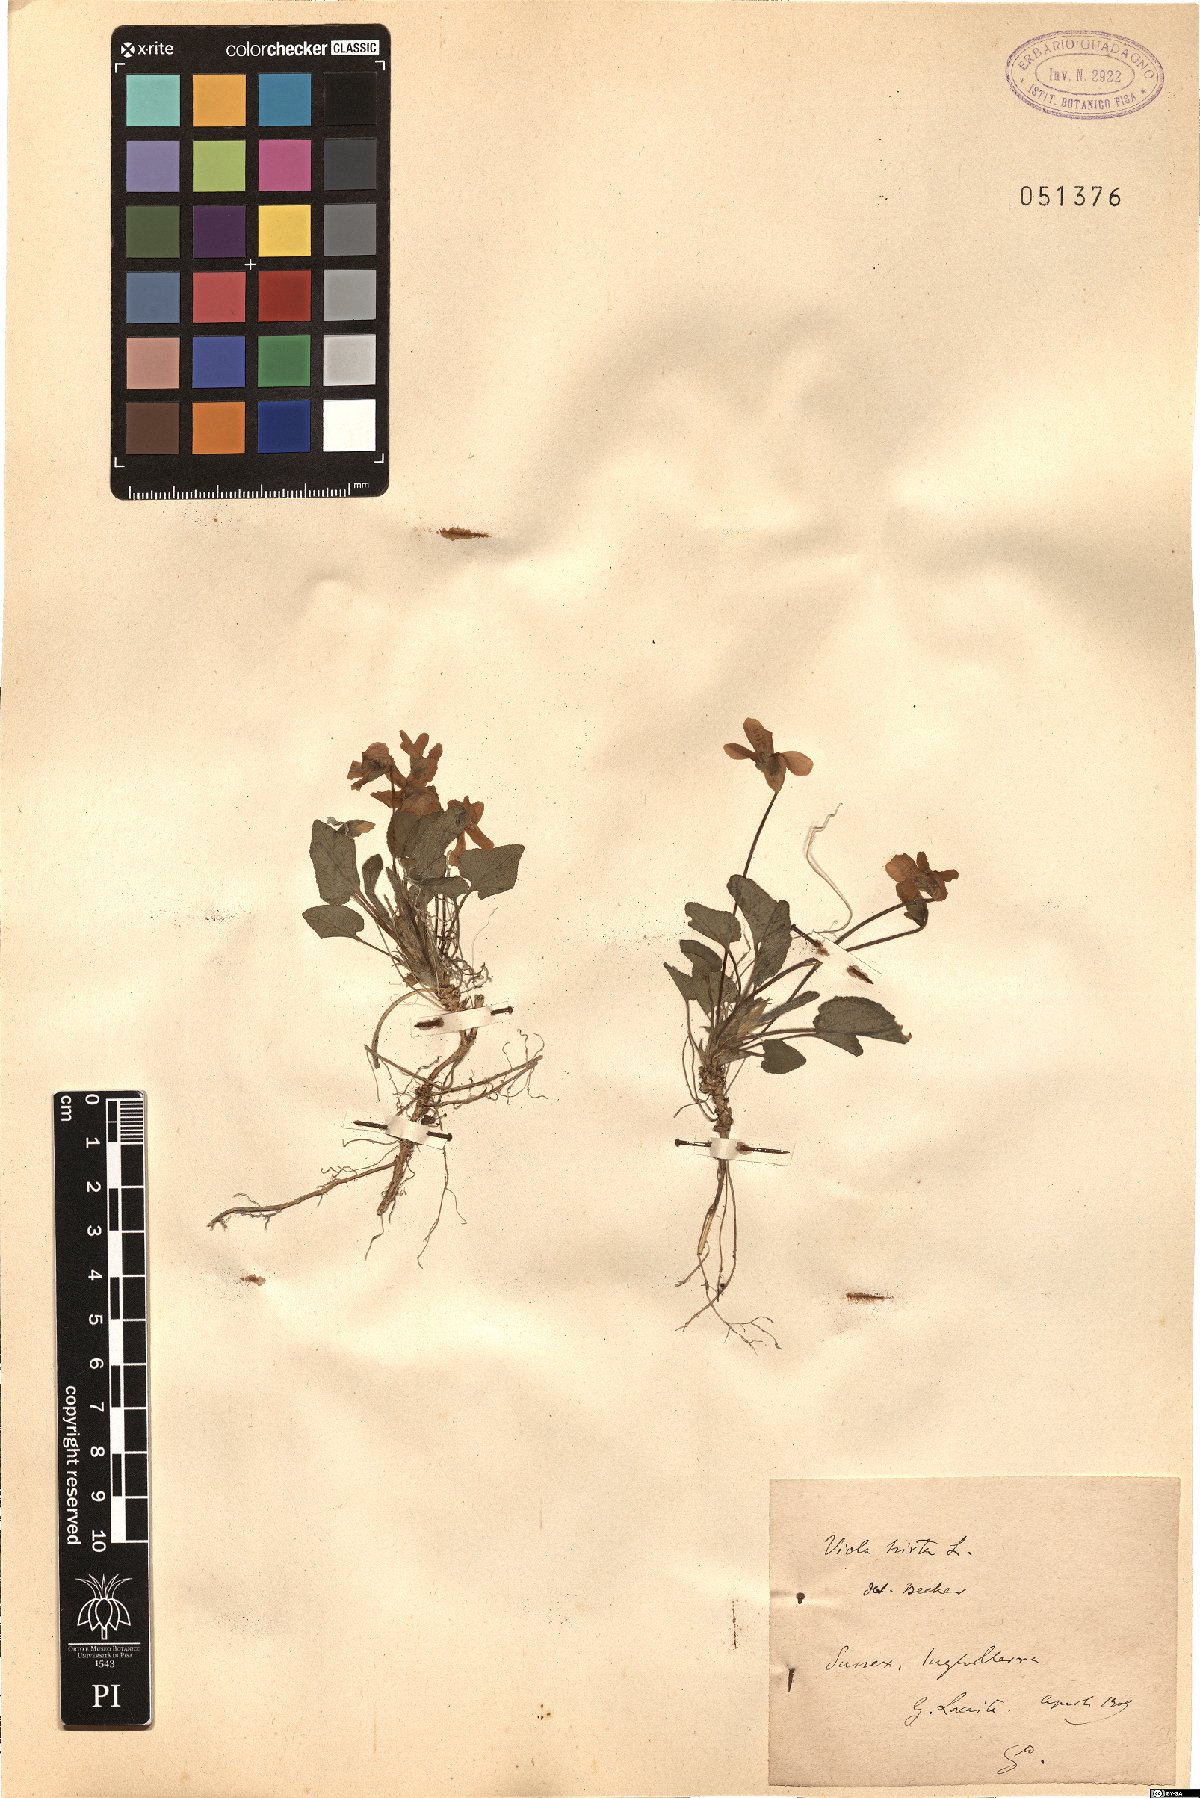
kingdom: Plantae
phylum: Tracheophyta
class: Magnoliopsida
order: Malpighiales
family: Violaceae
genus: Viola
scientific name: Viola hirta
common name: Hairy violet
